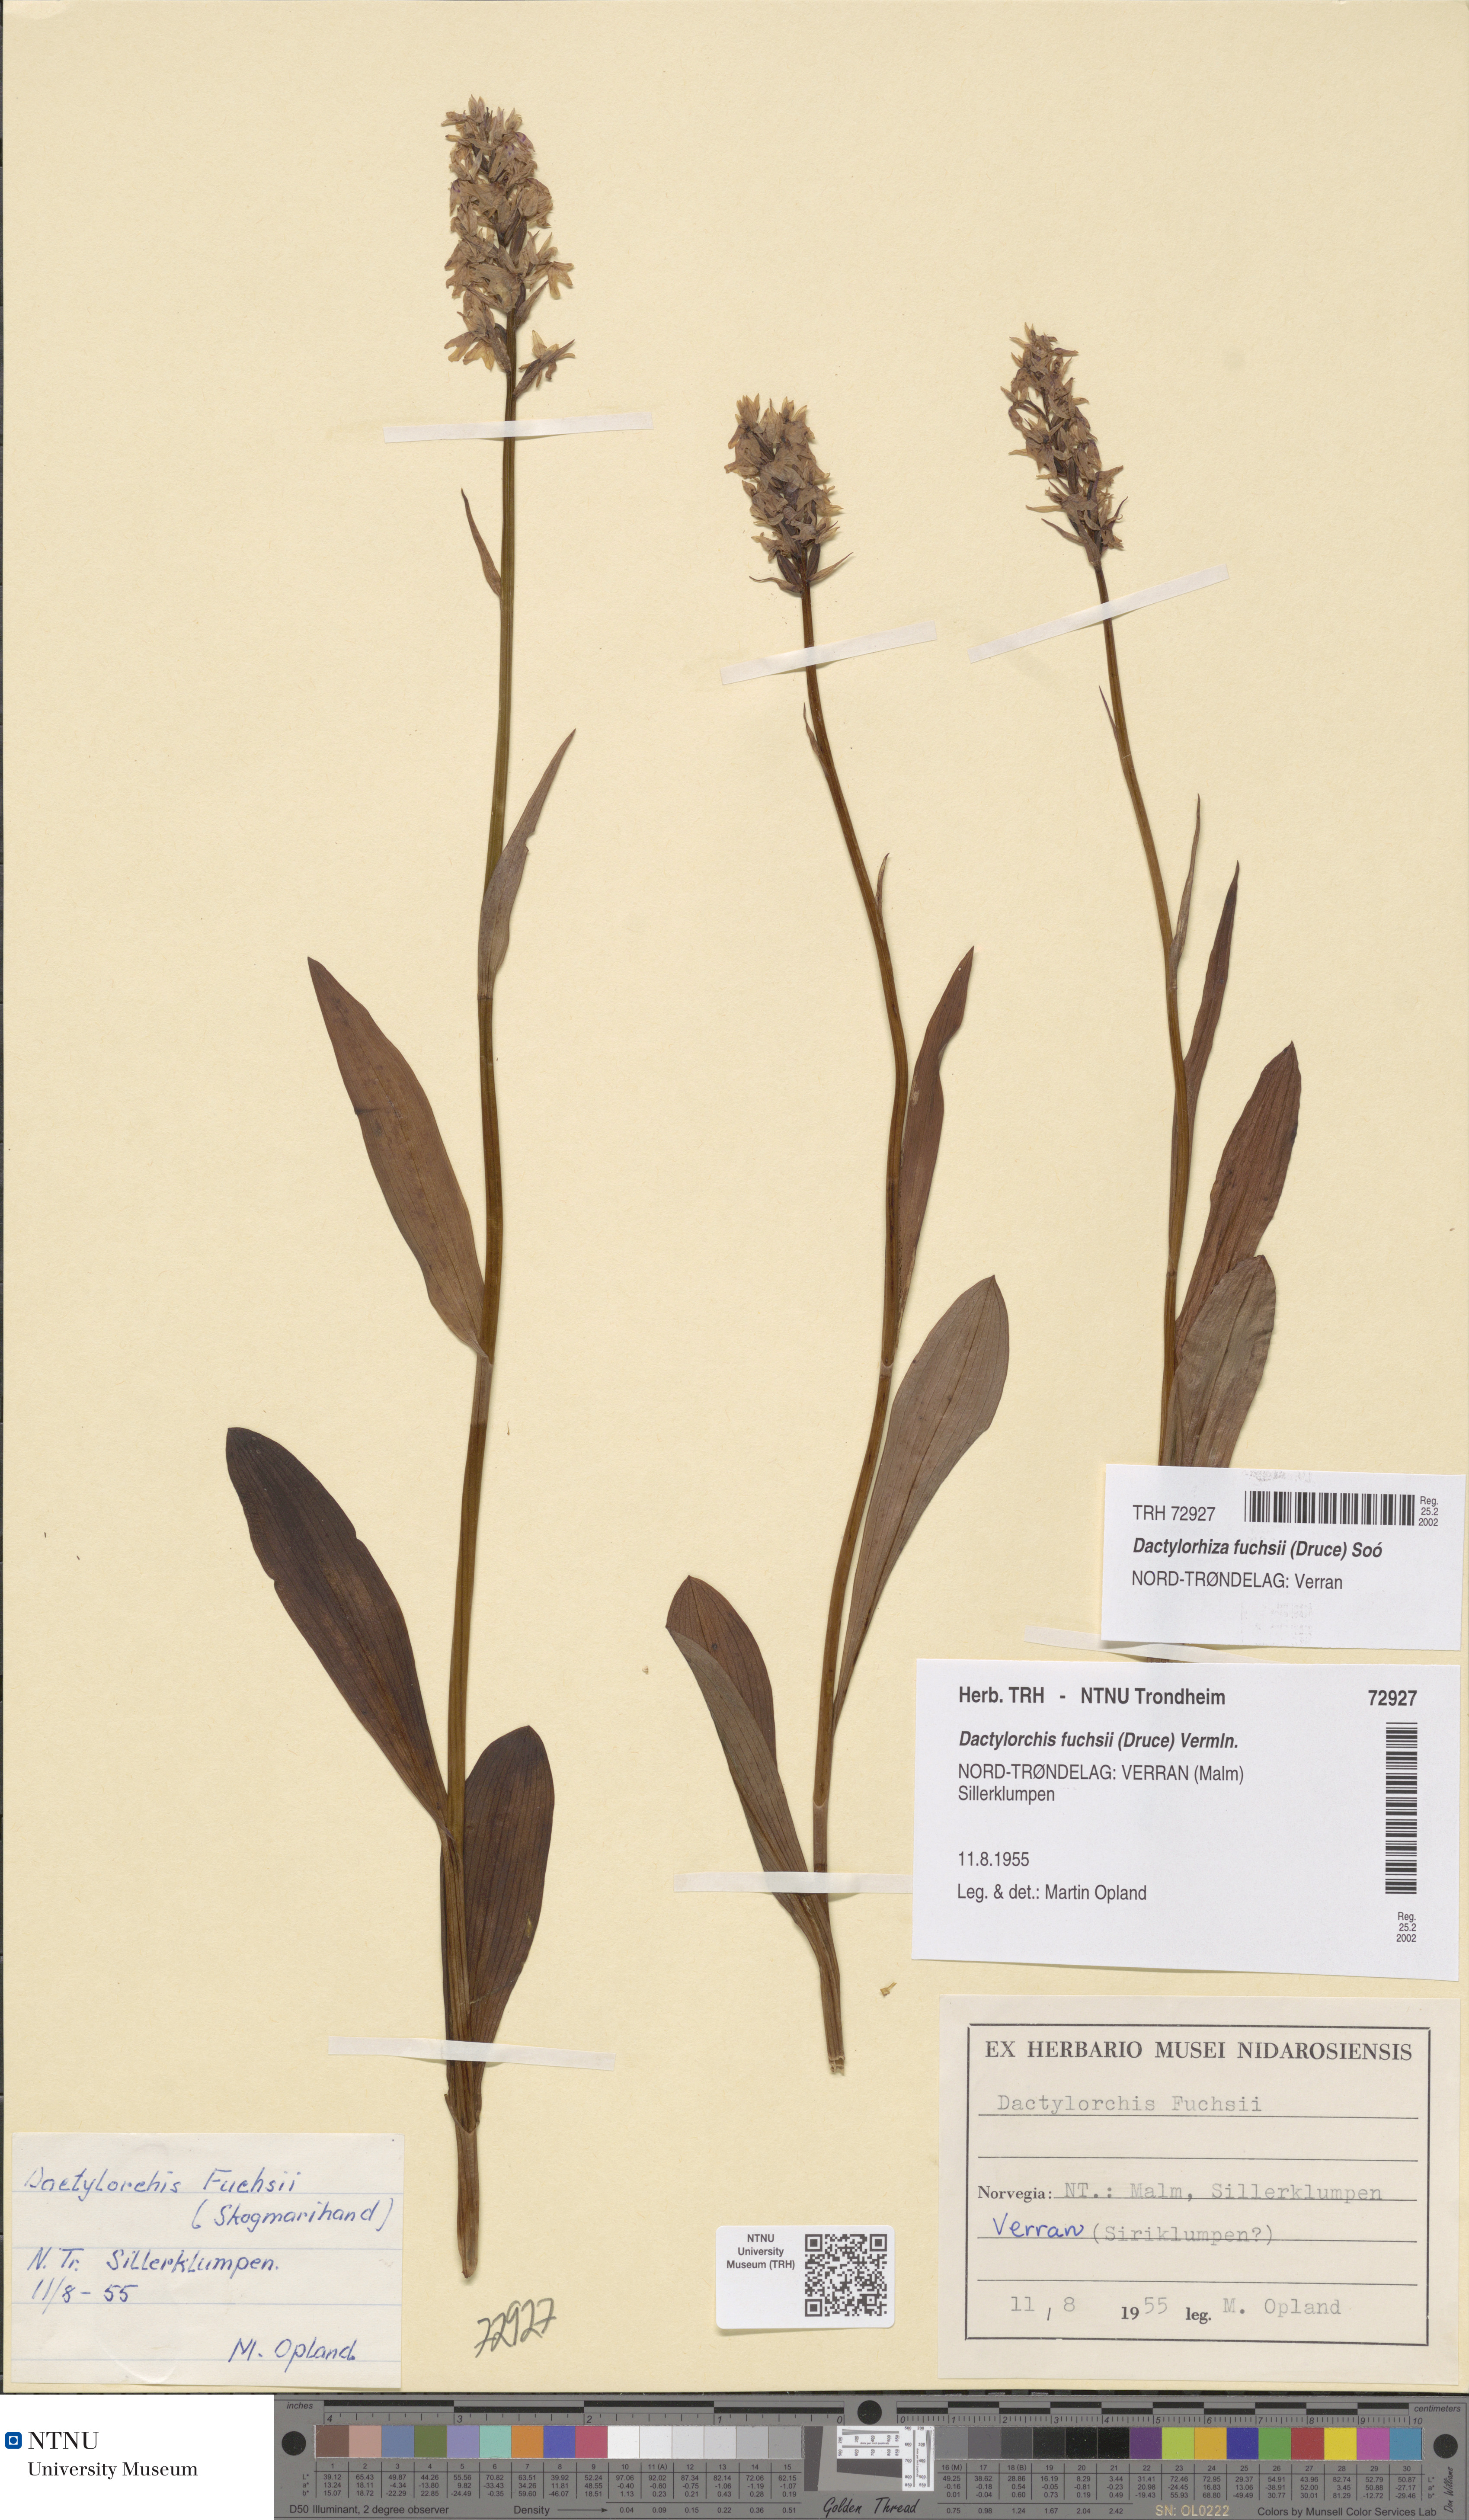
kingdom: Plantae
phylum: Tracheophyta
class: Liliopsida
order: Asparagales
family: Orchidaceae
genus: Dactylorhiza
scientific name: Dactylorhiza maculata
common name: Heath spotted-orchid
